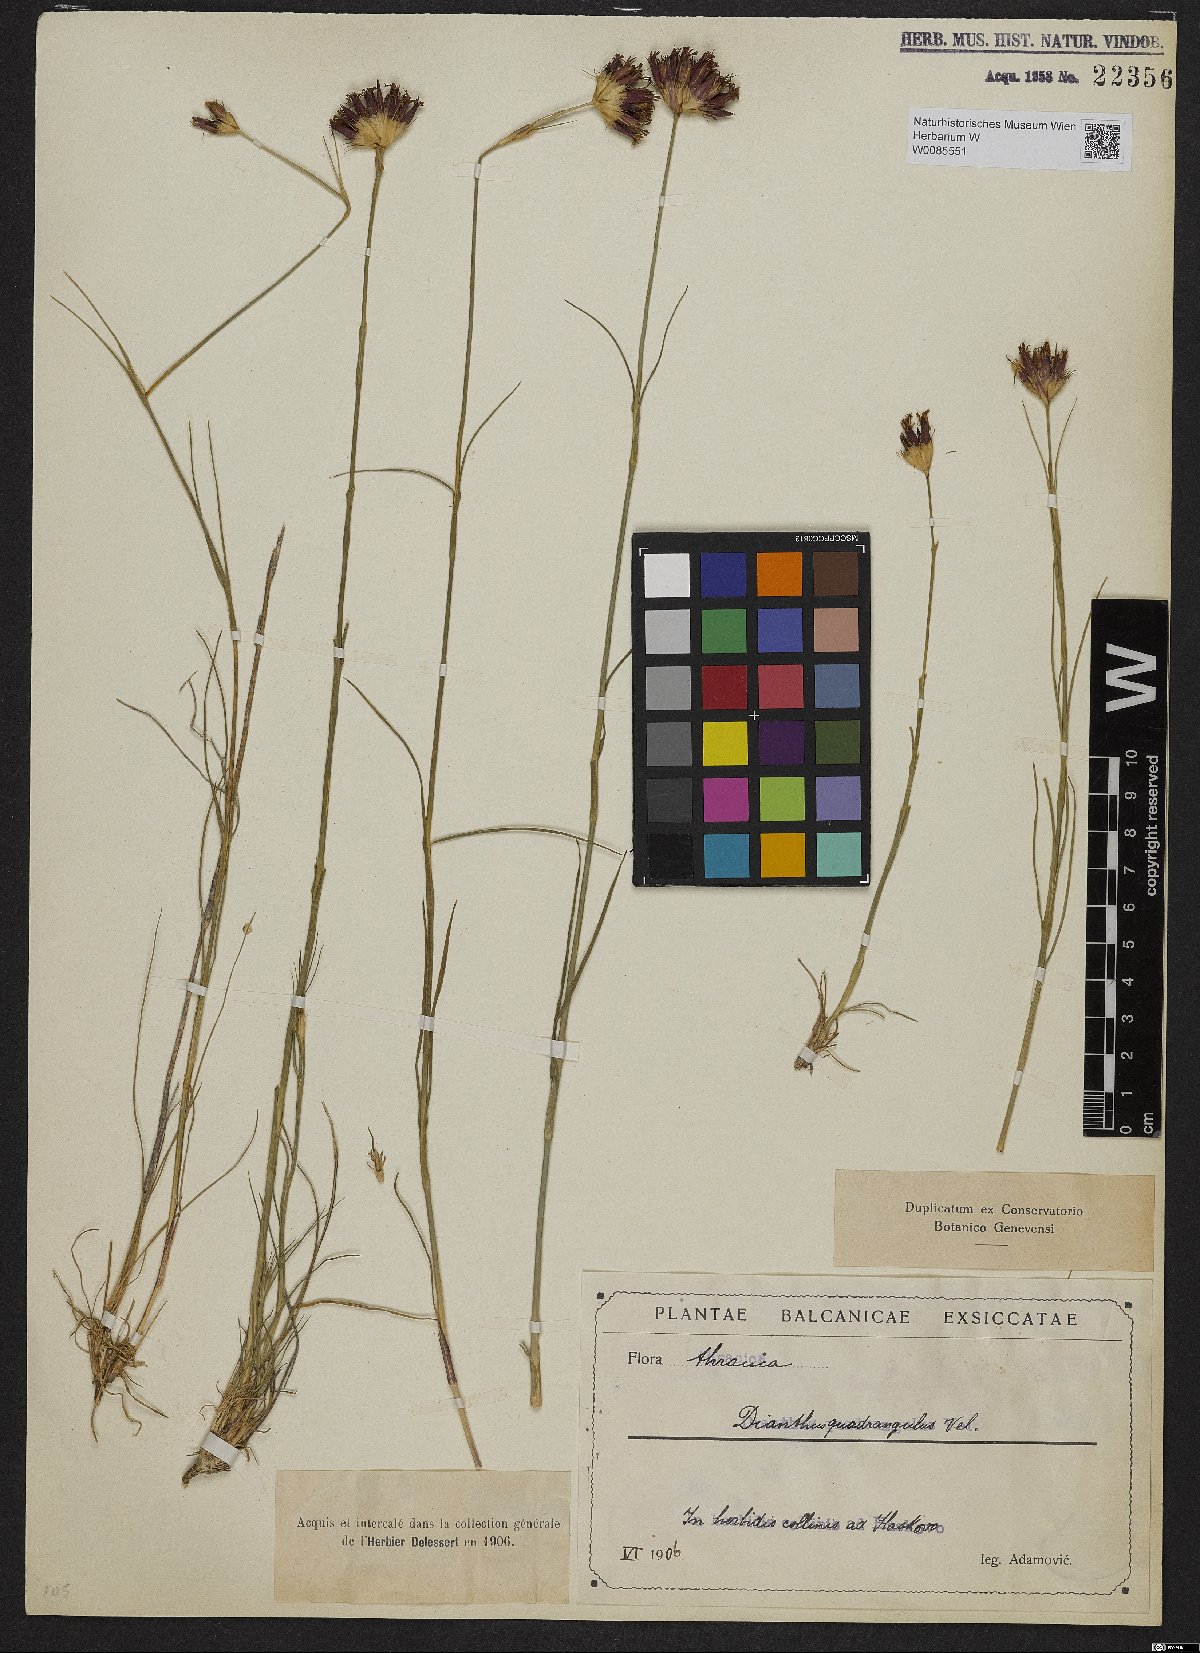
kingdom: Plantae
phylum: Tracheophyta
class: Magnoliopsida
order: Caryophyllales
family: Caryophyllaceae
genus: Dianthus
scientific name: Dianthus cruentus
